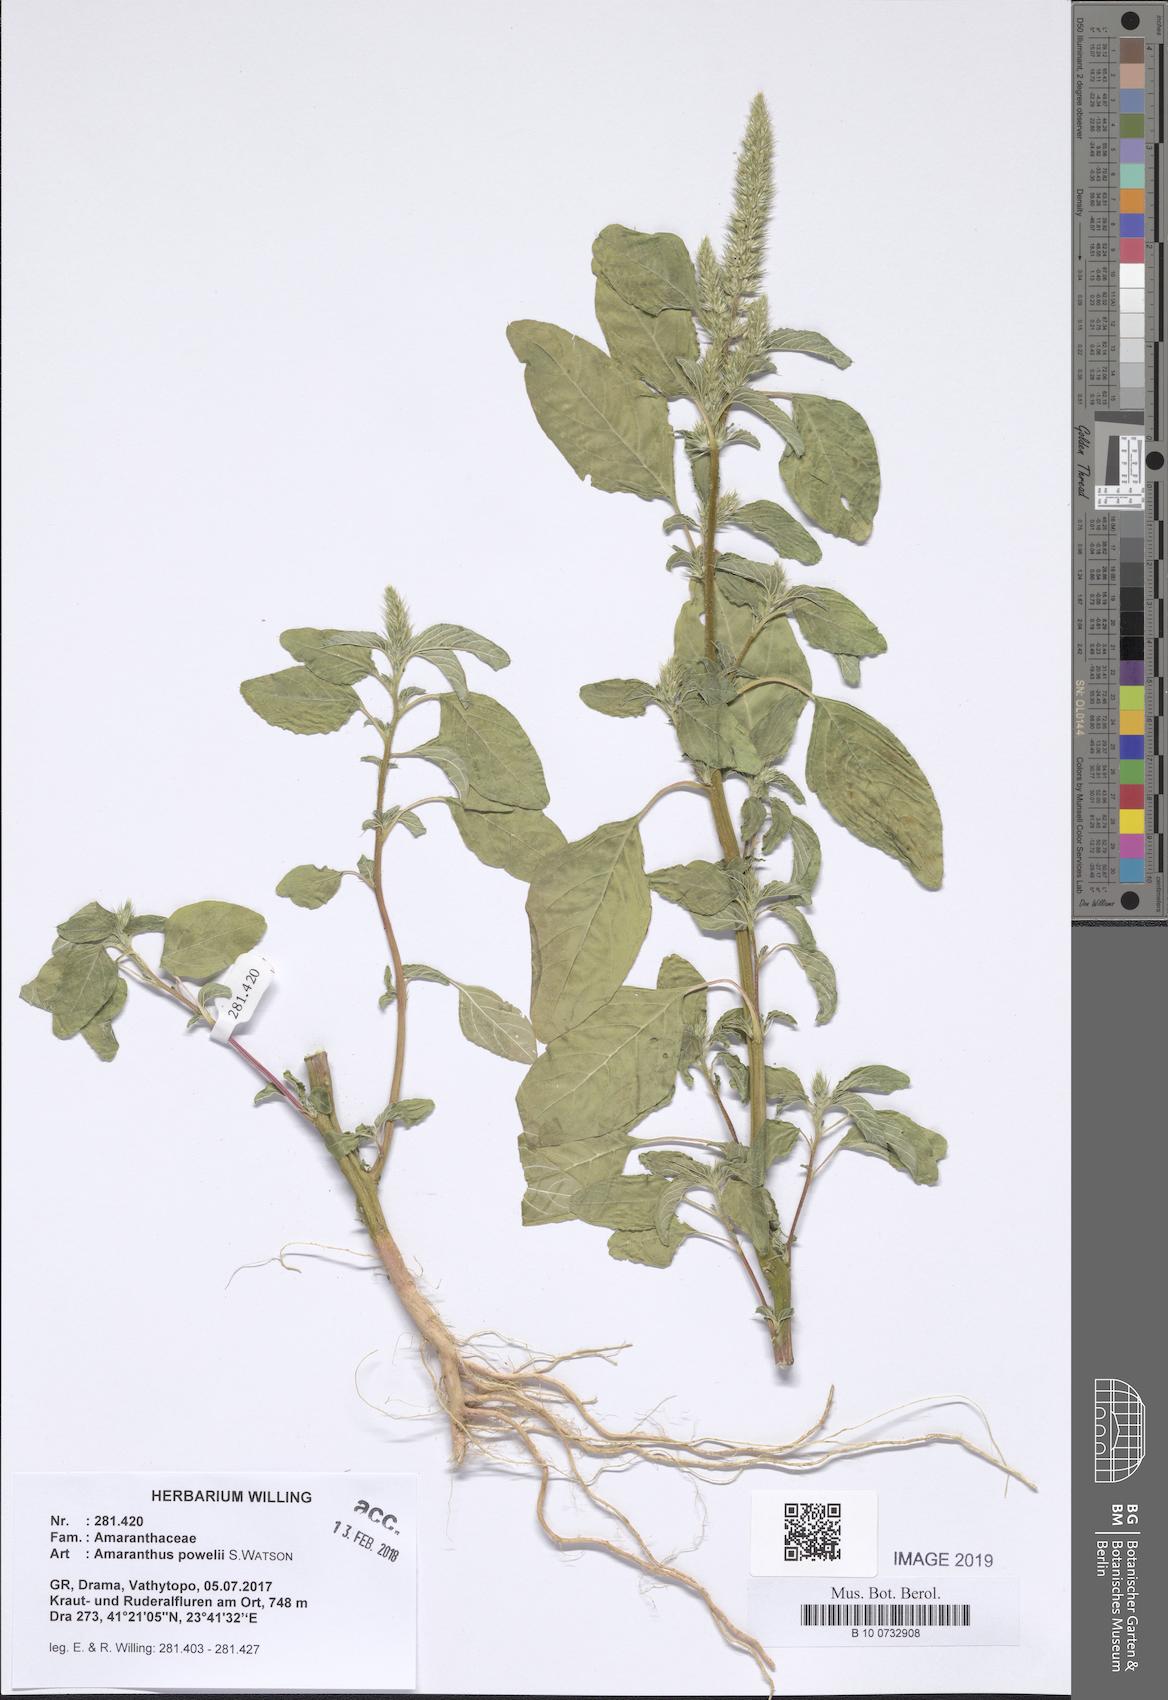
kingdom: Plantae
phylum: Tracheophyta
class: Magnoliopsida
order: Caryophyllales
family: Amaranthaceae
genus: Amaranthus
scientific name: Amaranthus powellii
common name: Powell's amaranth
